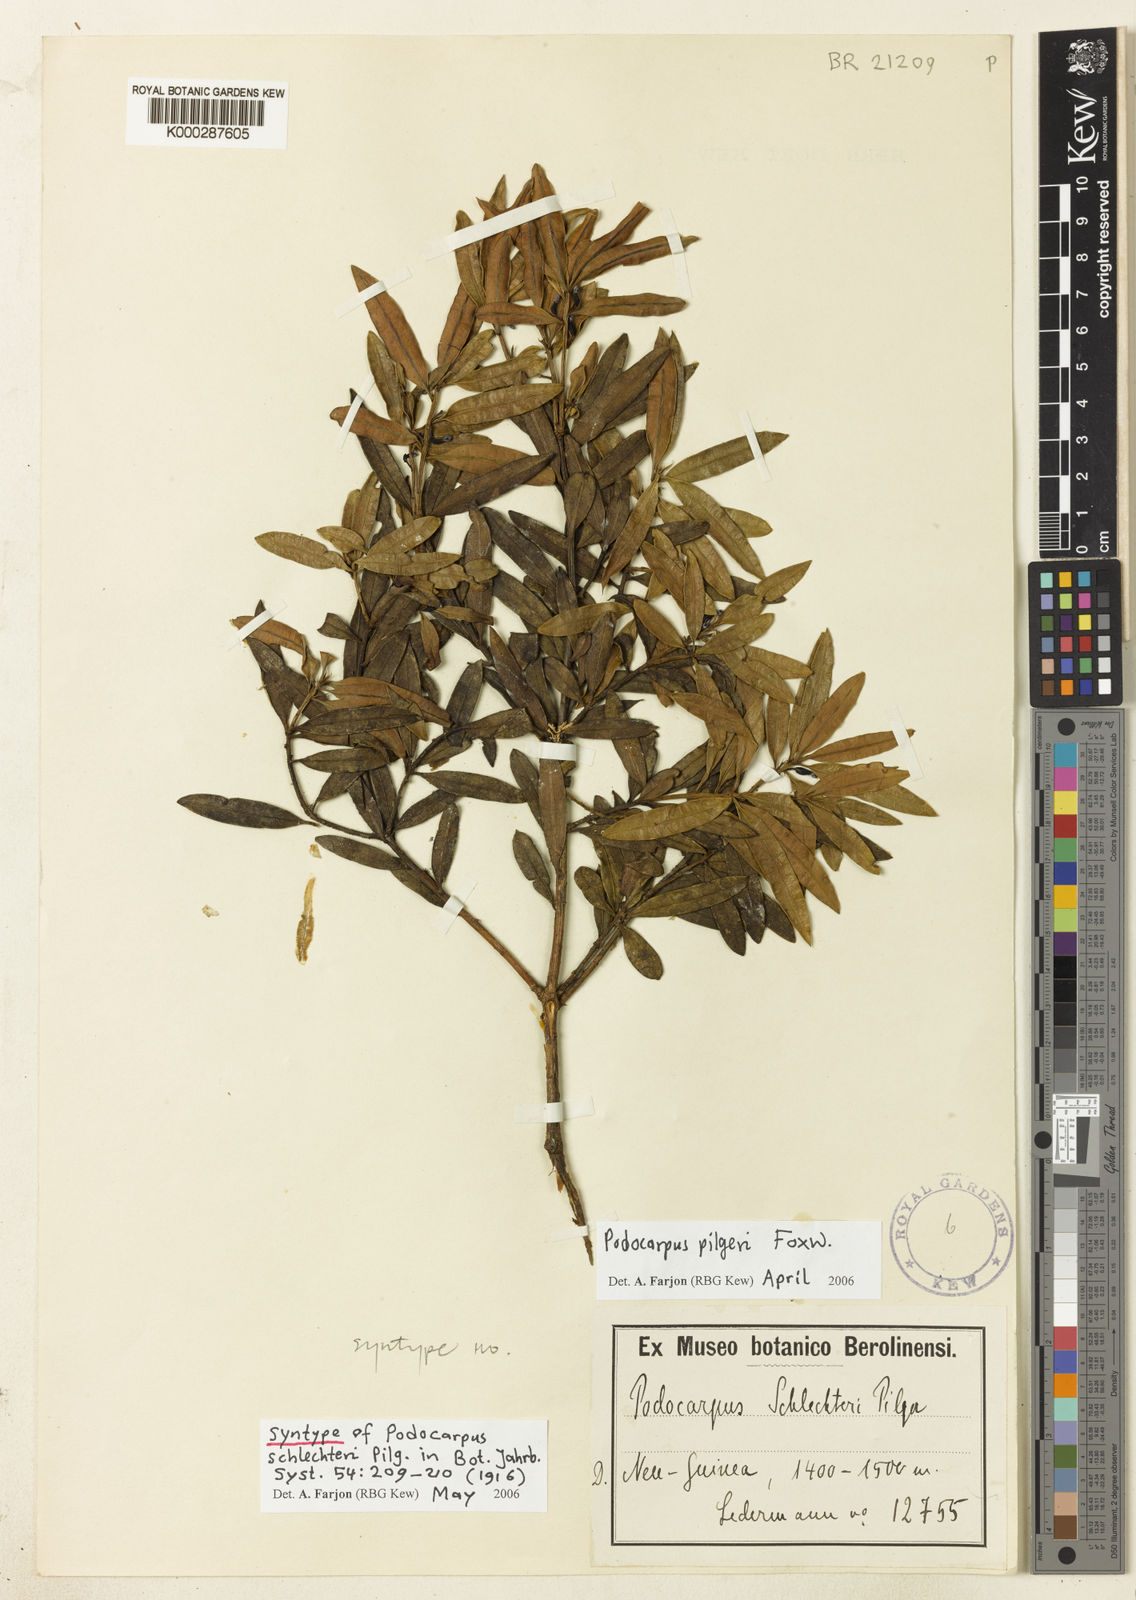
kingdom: Plantae
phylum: Tracheophyta
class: Pinopsida
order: Pinales
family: Podocarpaceae
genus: Podocarpus
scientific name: Podocarpus pilgeri
